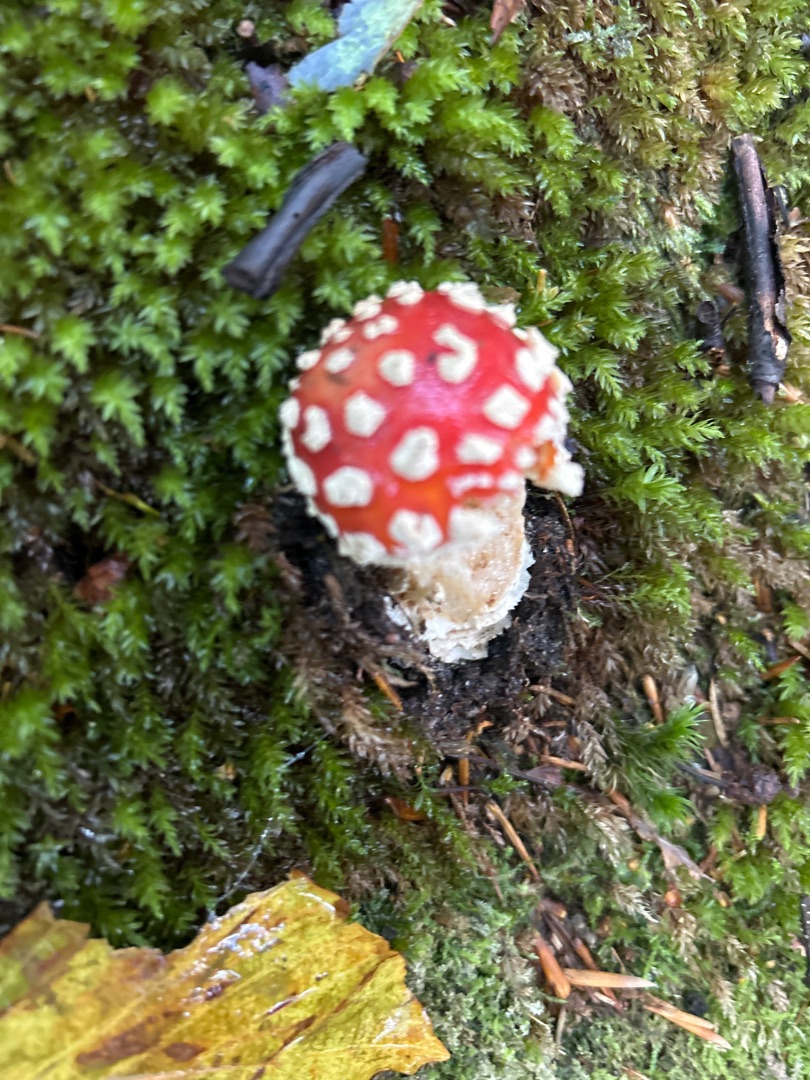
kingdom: Fungi
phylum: Basidiomycota
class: Agaricomycetes
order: Agaricales
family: Amanitaceae
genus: Amanita
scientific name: Amanita muscaria
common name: Rød fluesvamp
